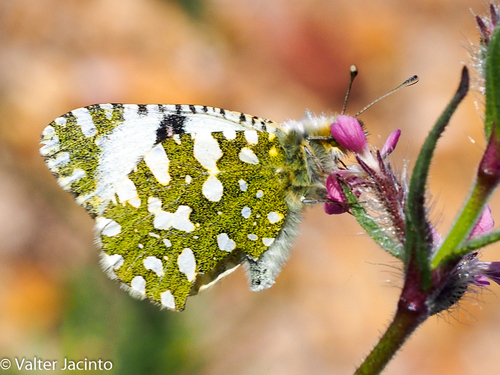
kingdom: Animalia
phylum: Arthropoda
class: Insecta
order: Lepidoptera
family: Pieridae
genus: Euchloe
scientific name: Euchloe crameri
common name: Western dappled white
